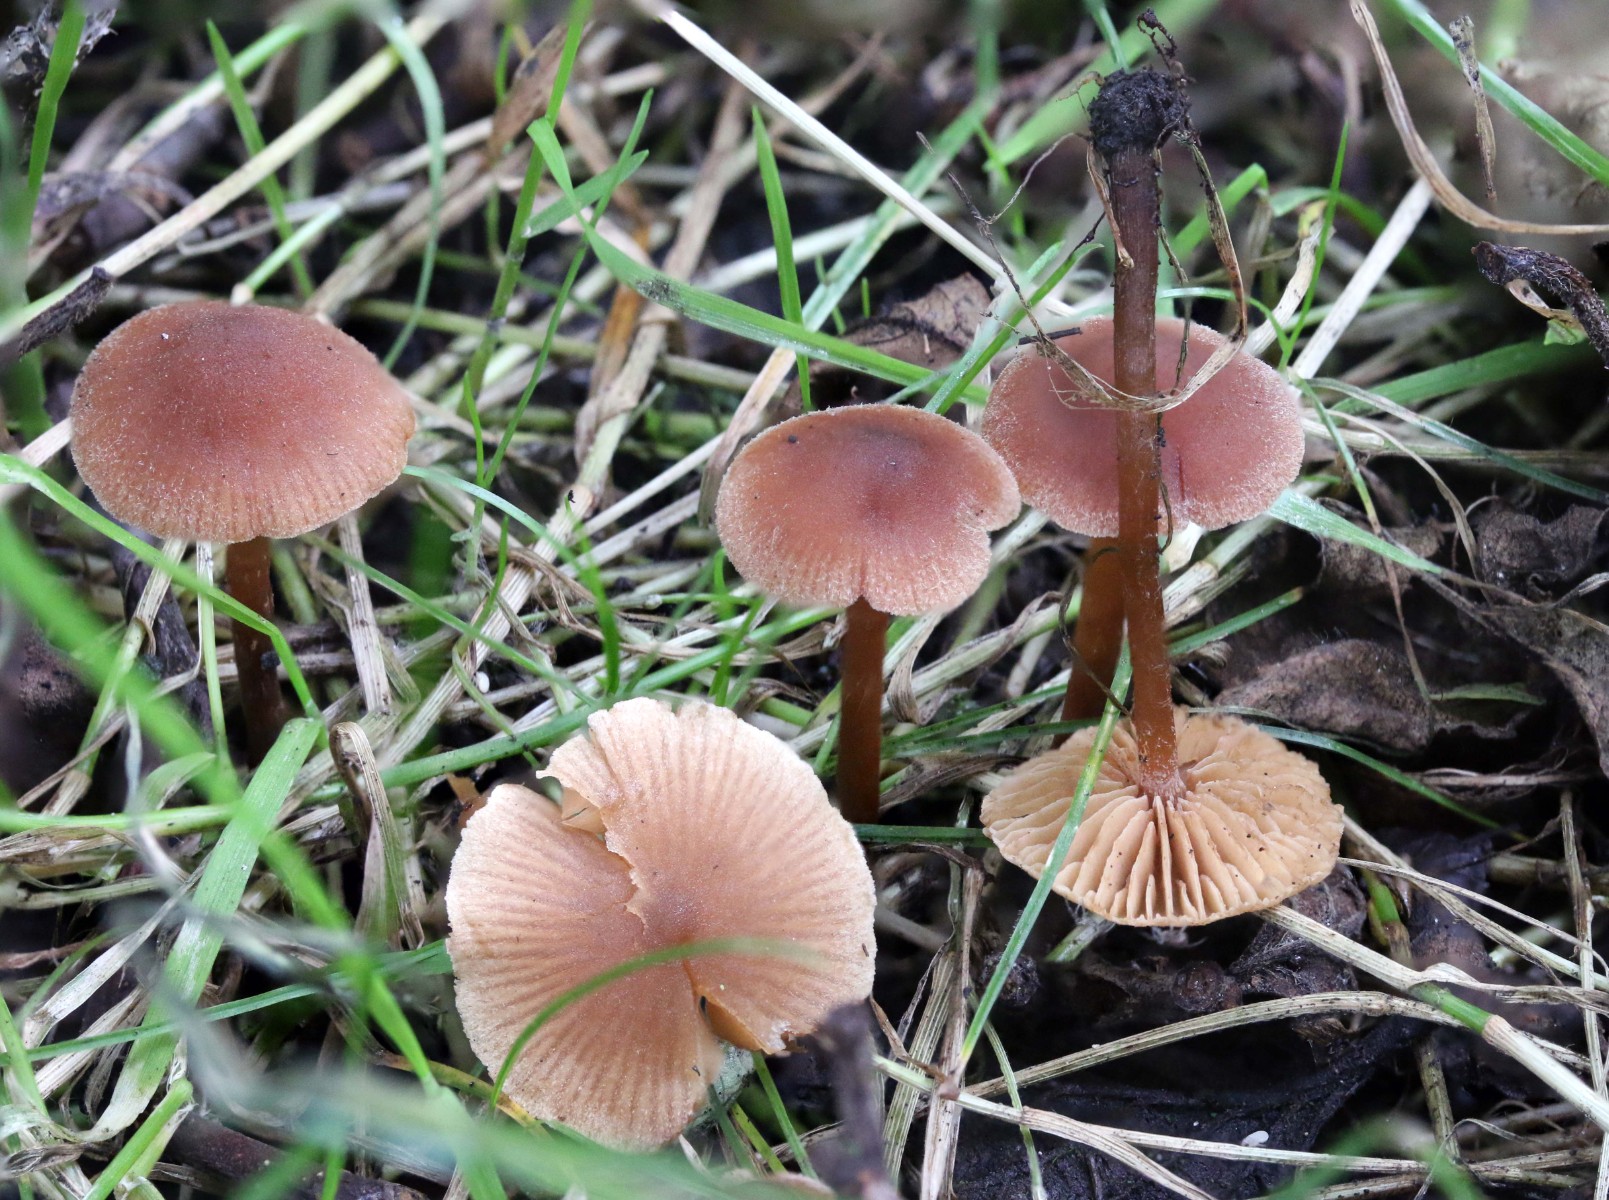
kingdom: Fungi
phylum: Basidiomycota
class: Agaricomycetes
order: Agaricales
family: Hymenogastraceae
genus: Naucoria
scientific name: Naucoria scolecina
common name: mørk elle-knaphat
